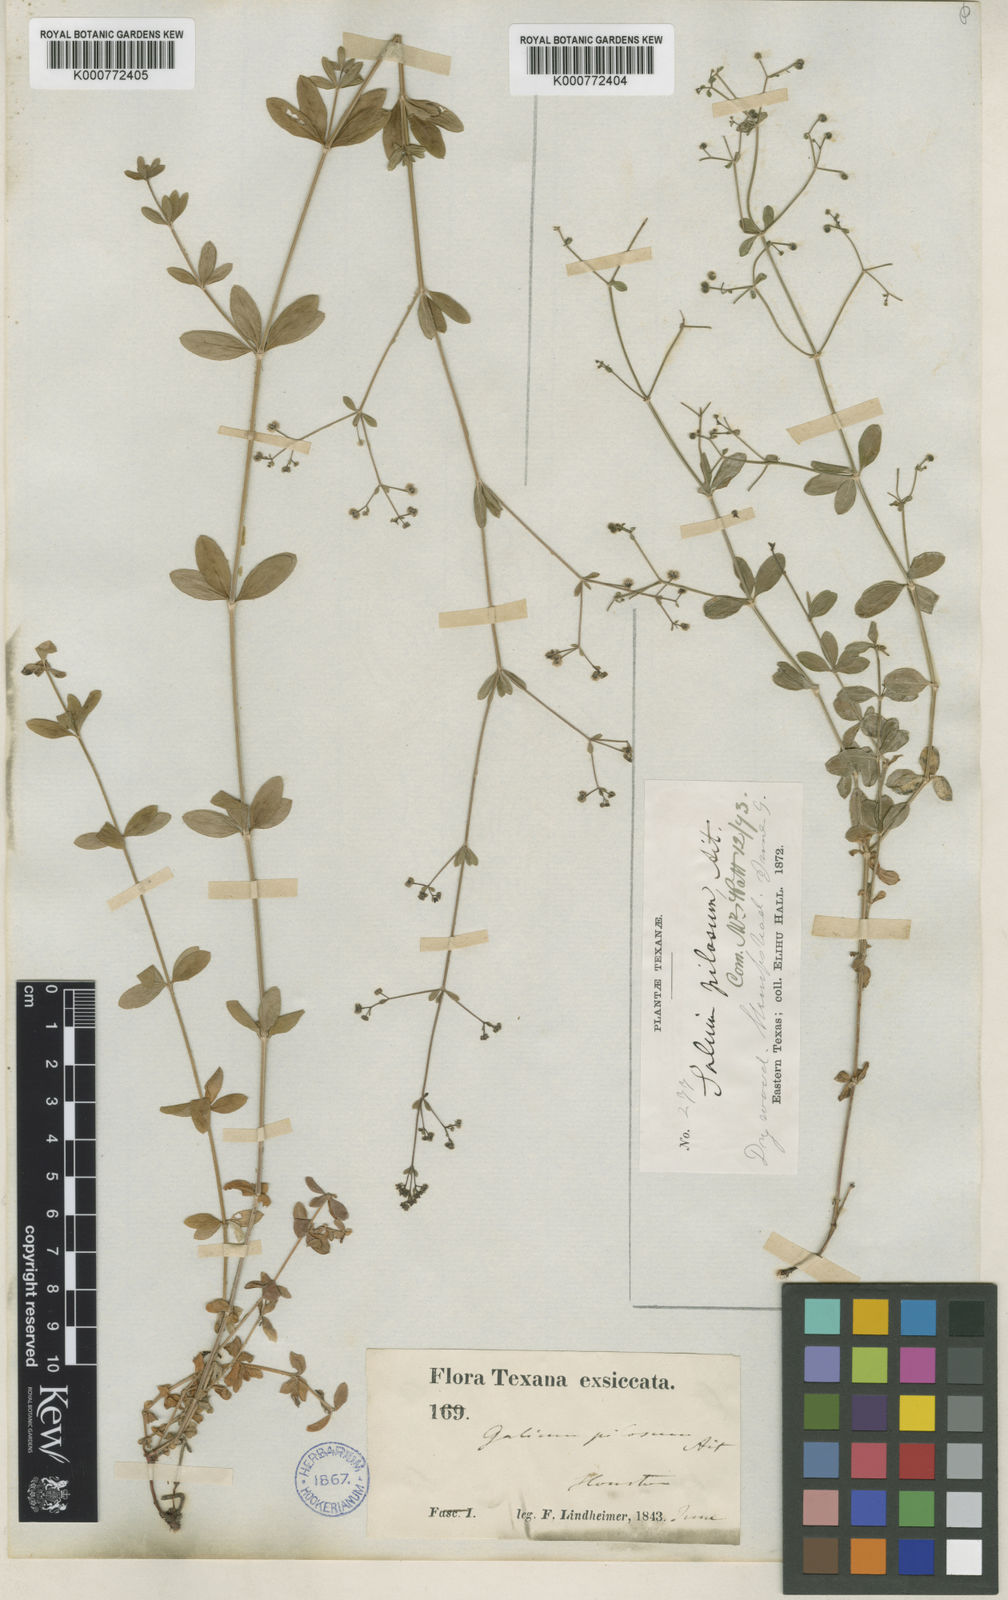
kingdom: Plantae
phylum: Tracheophyta
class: Magnoliopsida
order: Gentianales
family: Rubiaceae
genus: Galium
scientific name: Galium pilosum
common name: Hairy bedstraw
